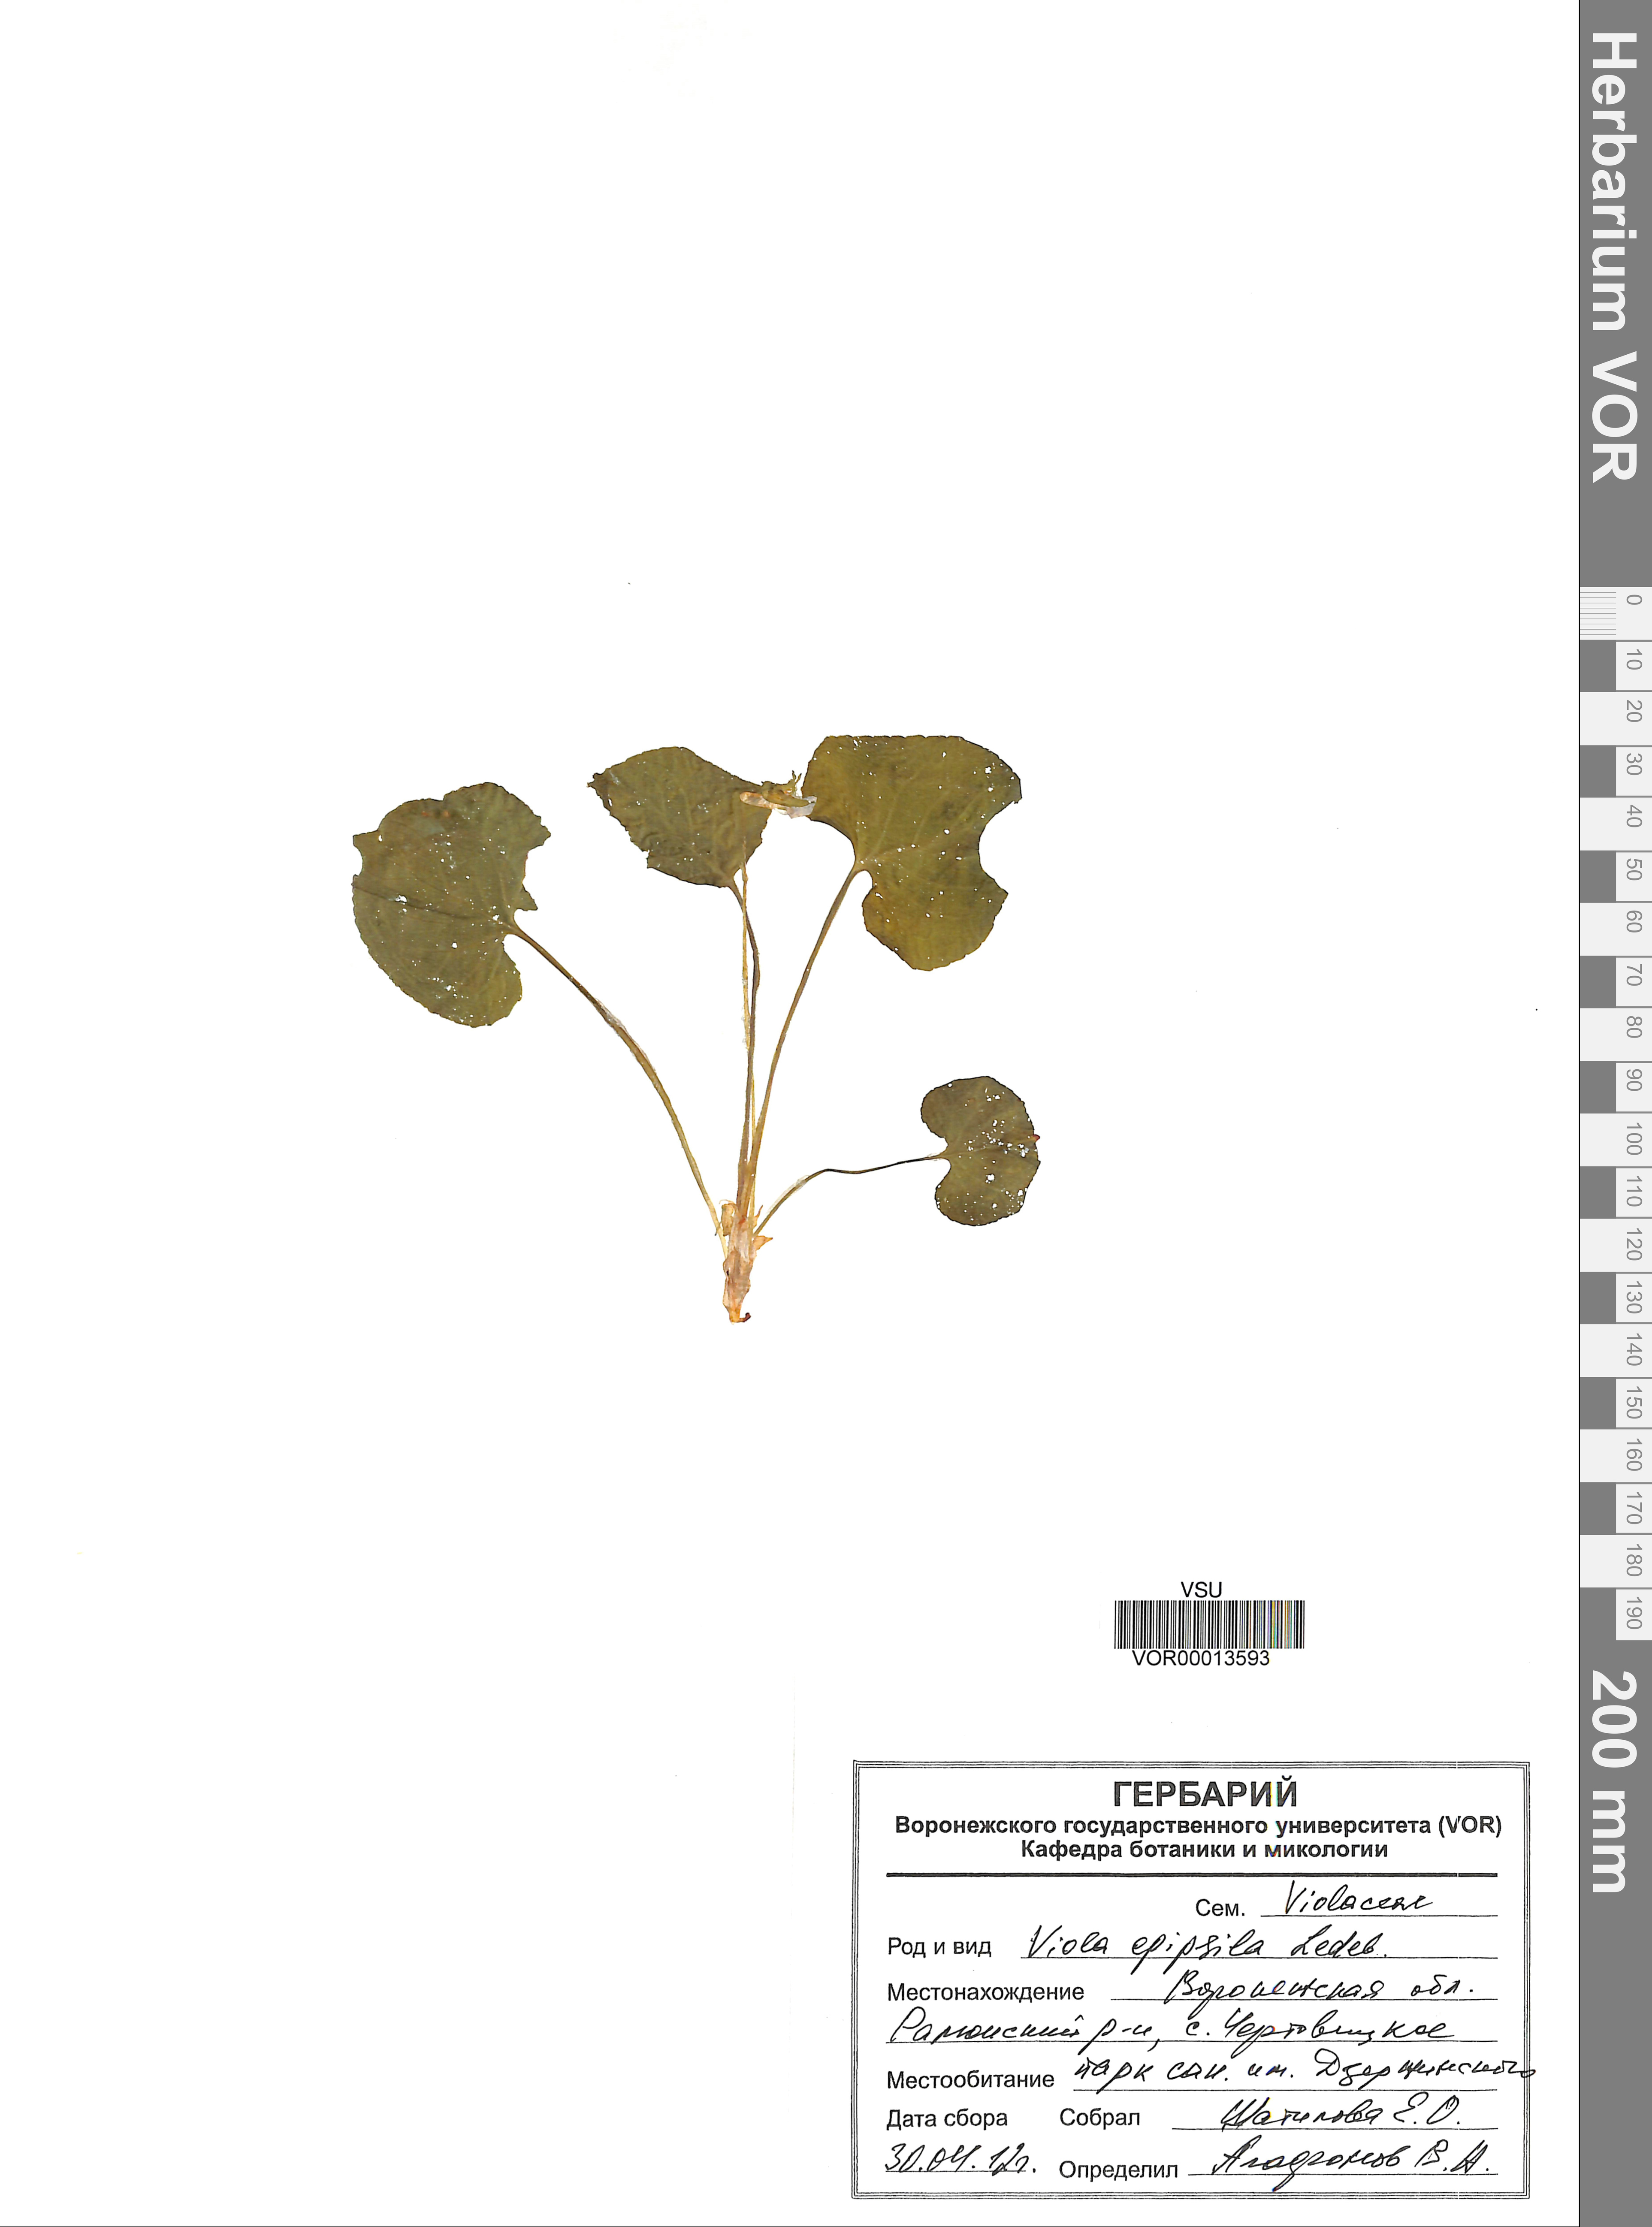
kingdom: Plantae
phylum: Tracheophyta
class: Magnoliopsida
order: Malpighiales
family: Violaceae
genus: Viola
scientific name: Viola epipsila
